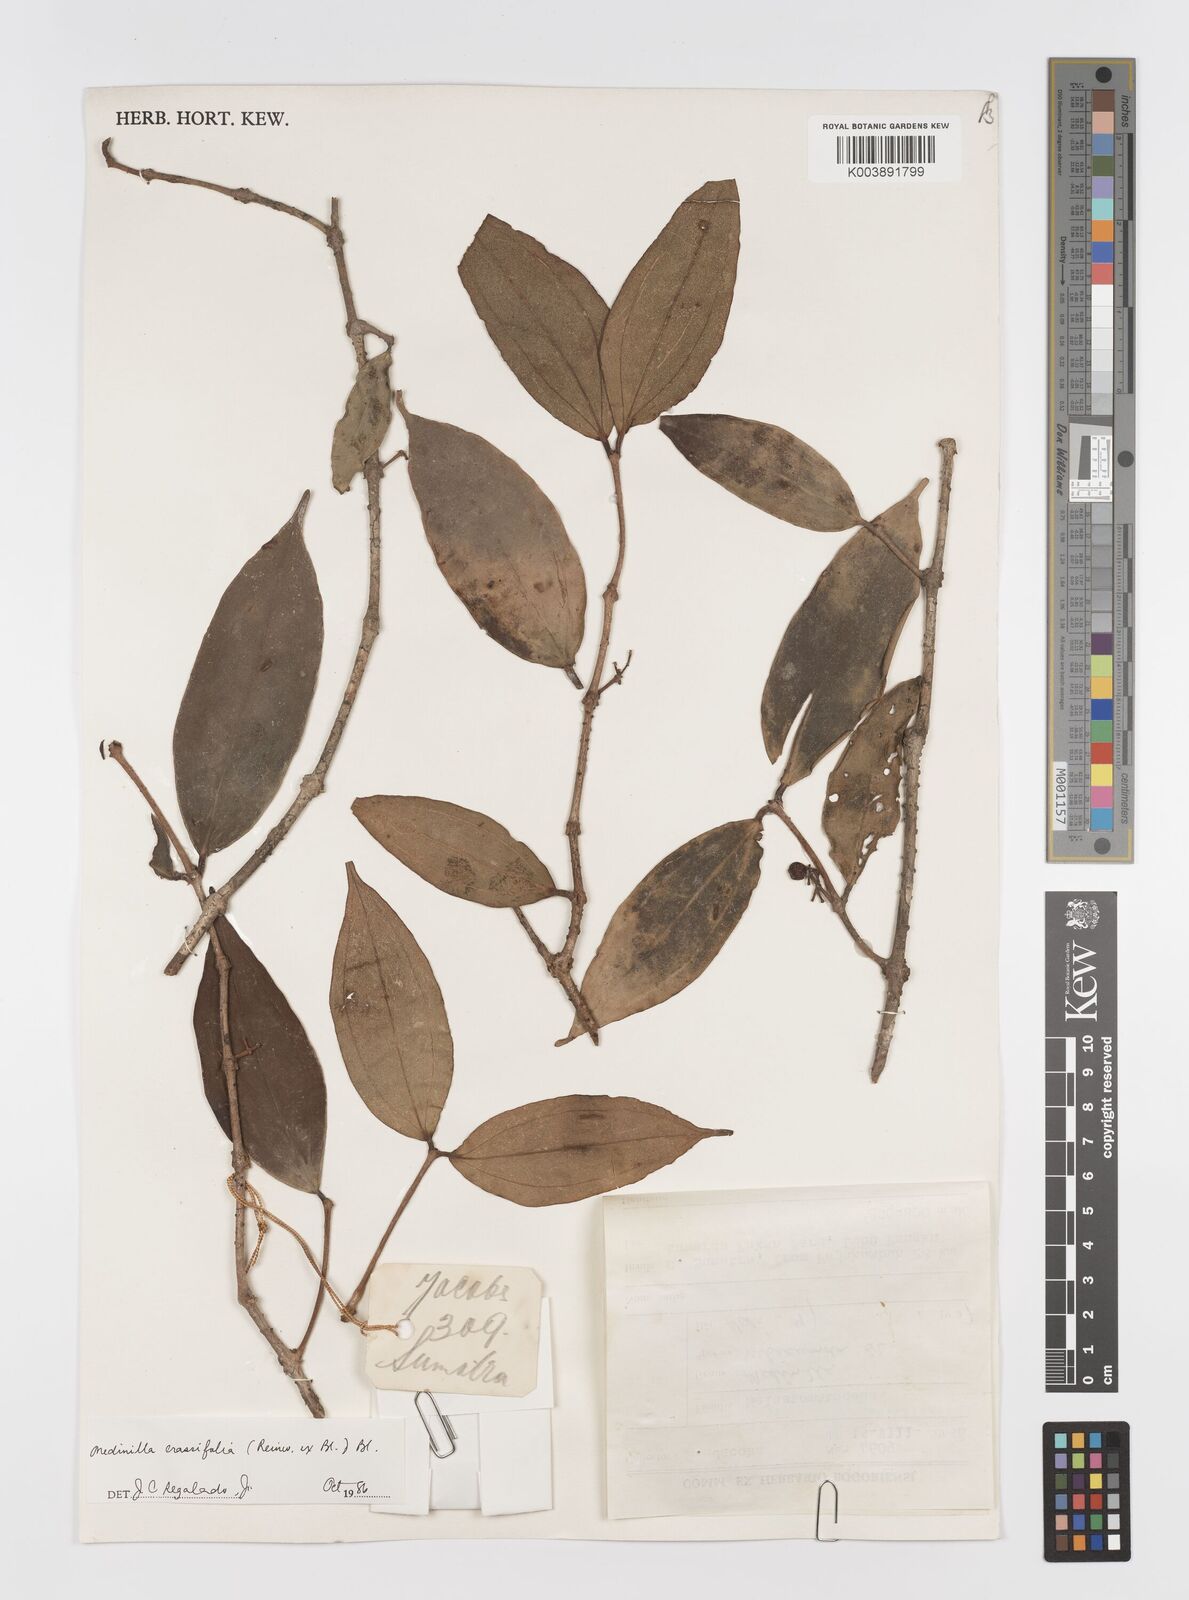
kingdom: Plantae
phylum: Tracheophyta
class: Magnoliopsida
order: Myrtales
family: Melastomataceae
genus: Medinilla
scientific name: Medinilla crassifolia
